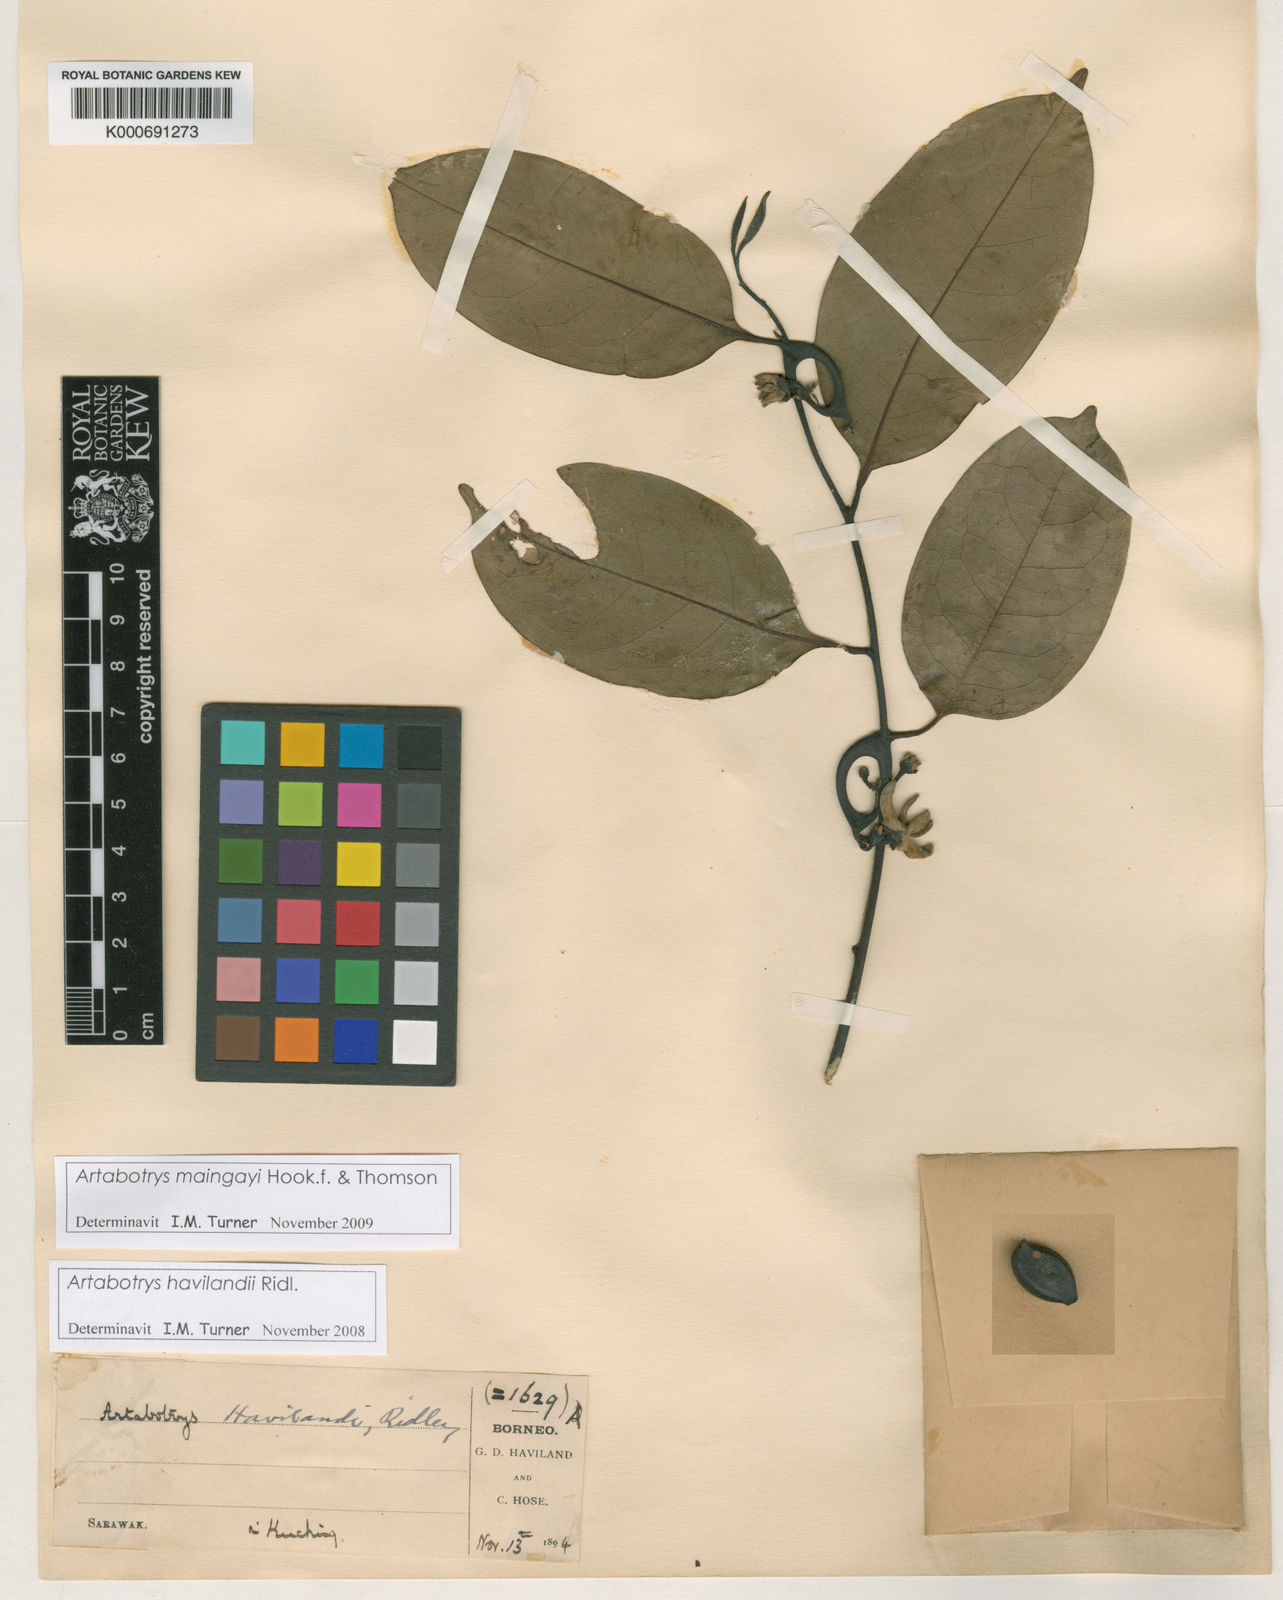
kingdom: Plantae
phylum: Tracheophyta
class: Magnoliopsida
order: Magnoliales
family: Annonaceae
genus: Artabotrys
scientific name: Artabotrys maingayi
